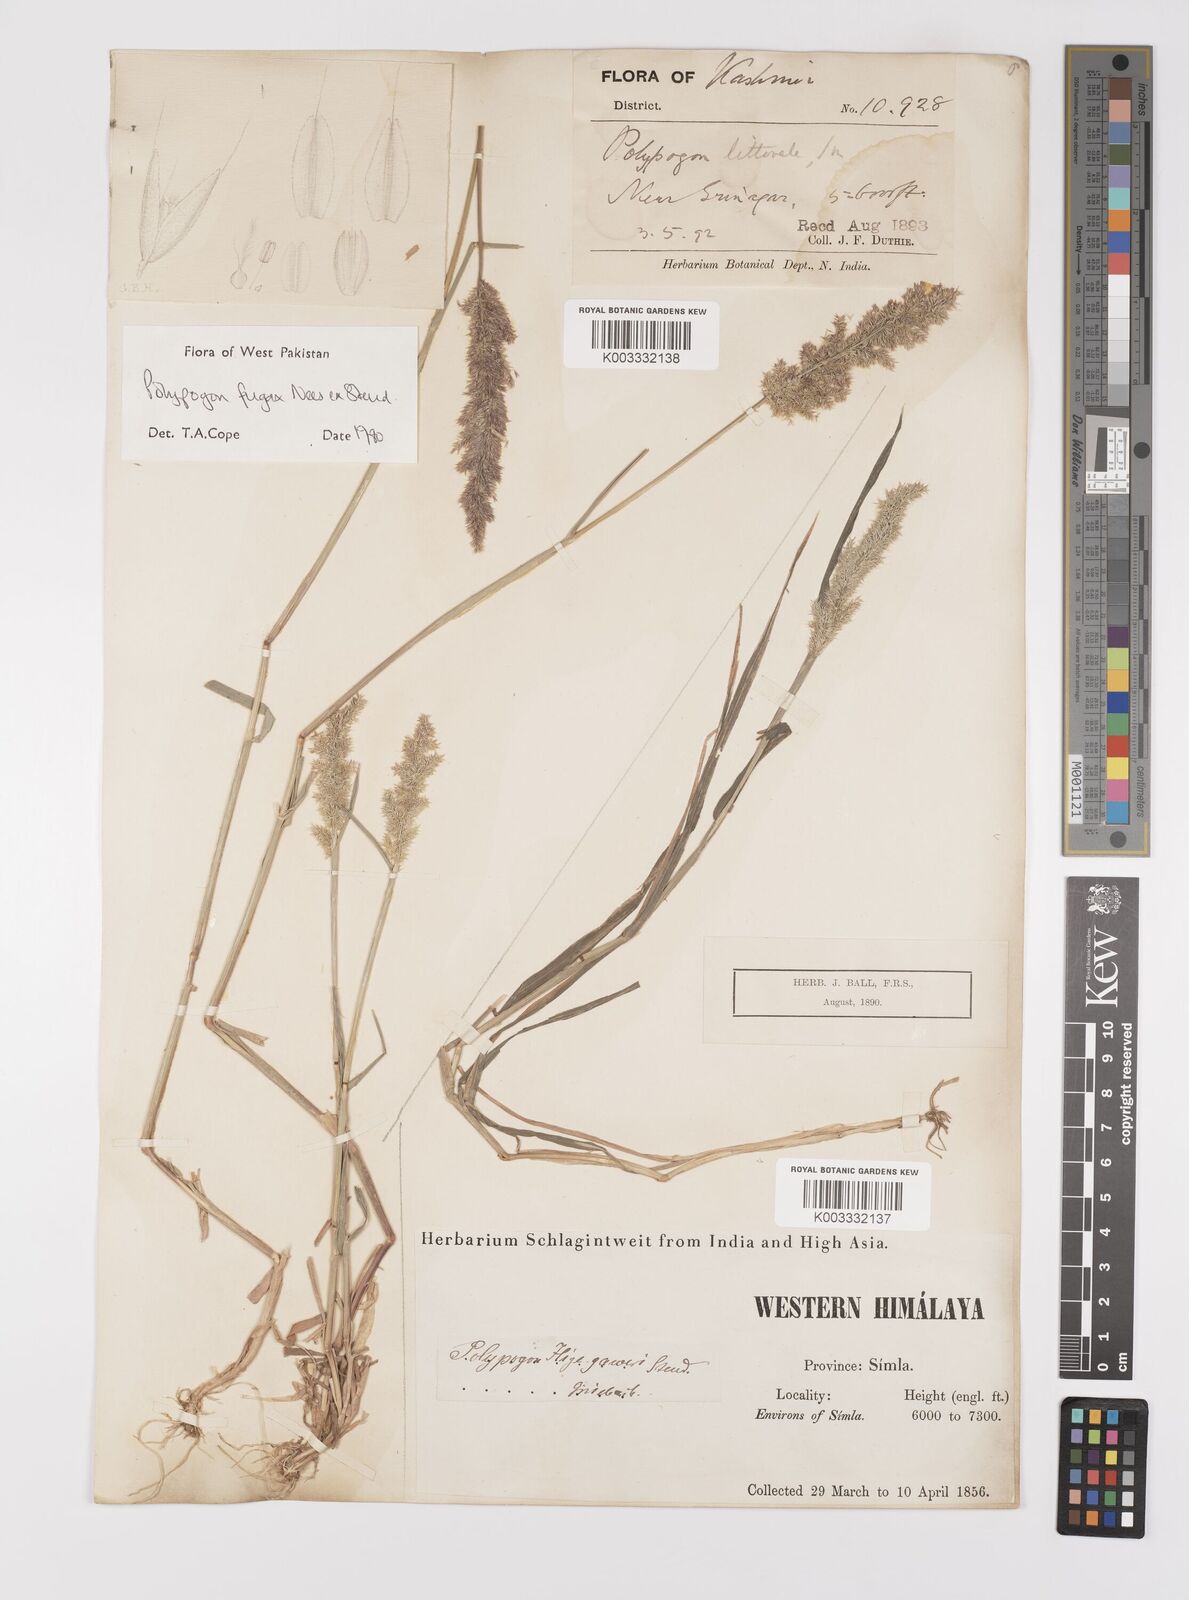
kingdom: Plantae
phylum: Tracheophyta
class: Liliopsida
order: Poales
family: Poaceae
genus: Polypogon
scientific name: Polypogon fugax
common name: Asia minor bluegrass
